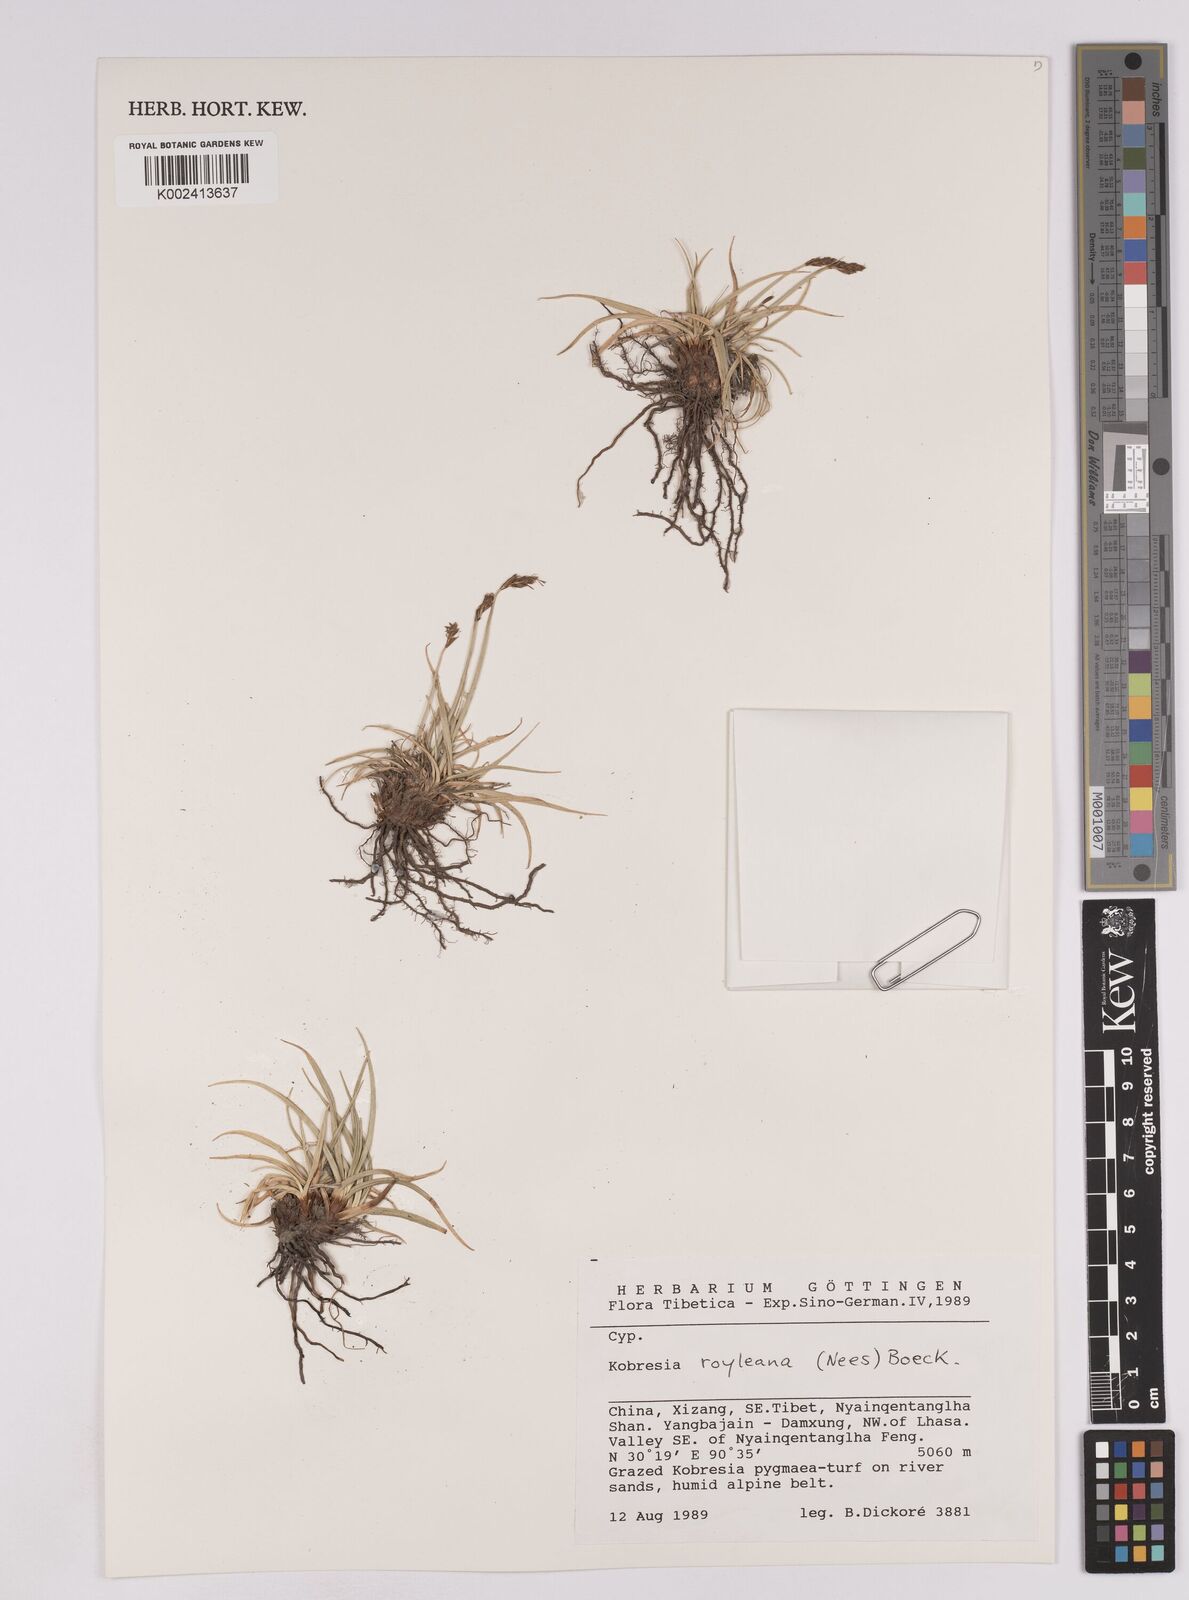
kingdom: Plantae
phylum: Tracheophyta
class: Liliopsida
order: Poales
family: Cyperaceae
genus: Carex
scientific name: Carex kokanica
